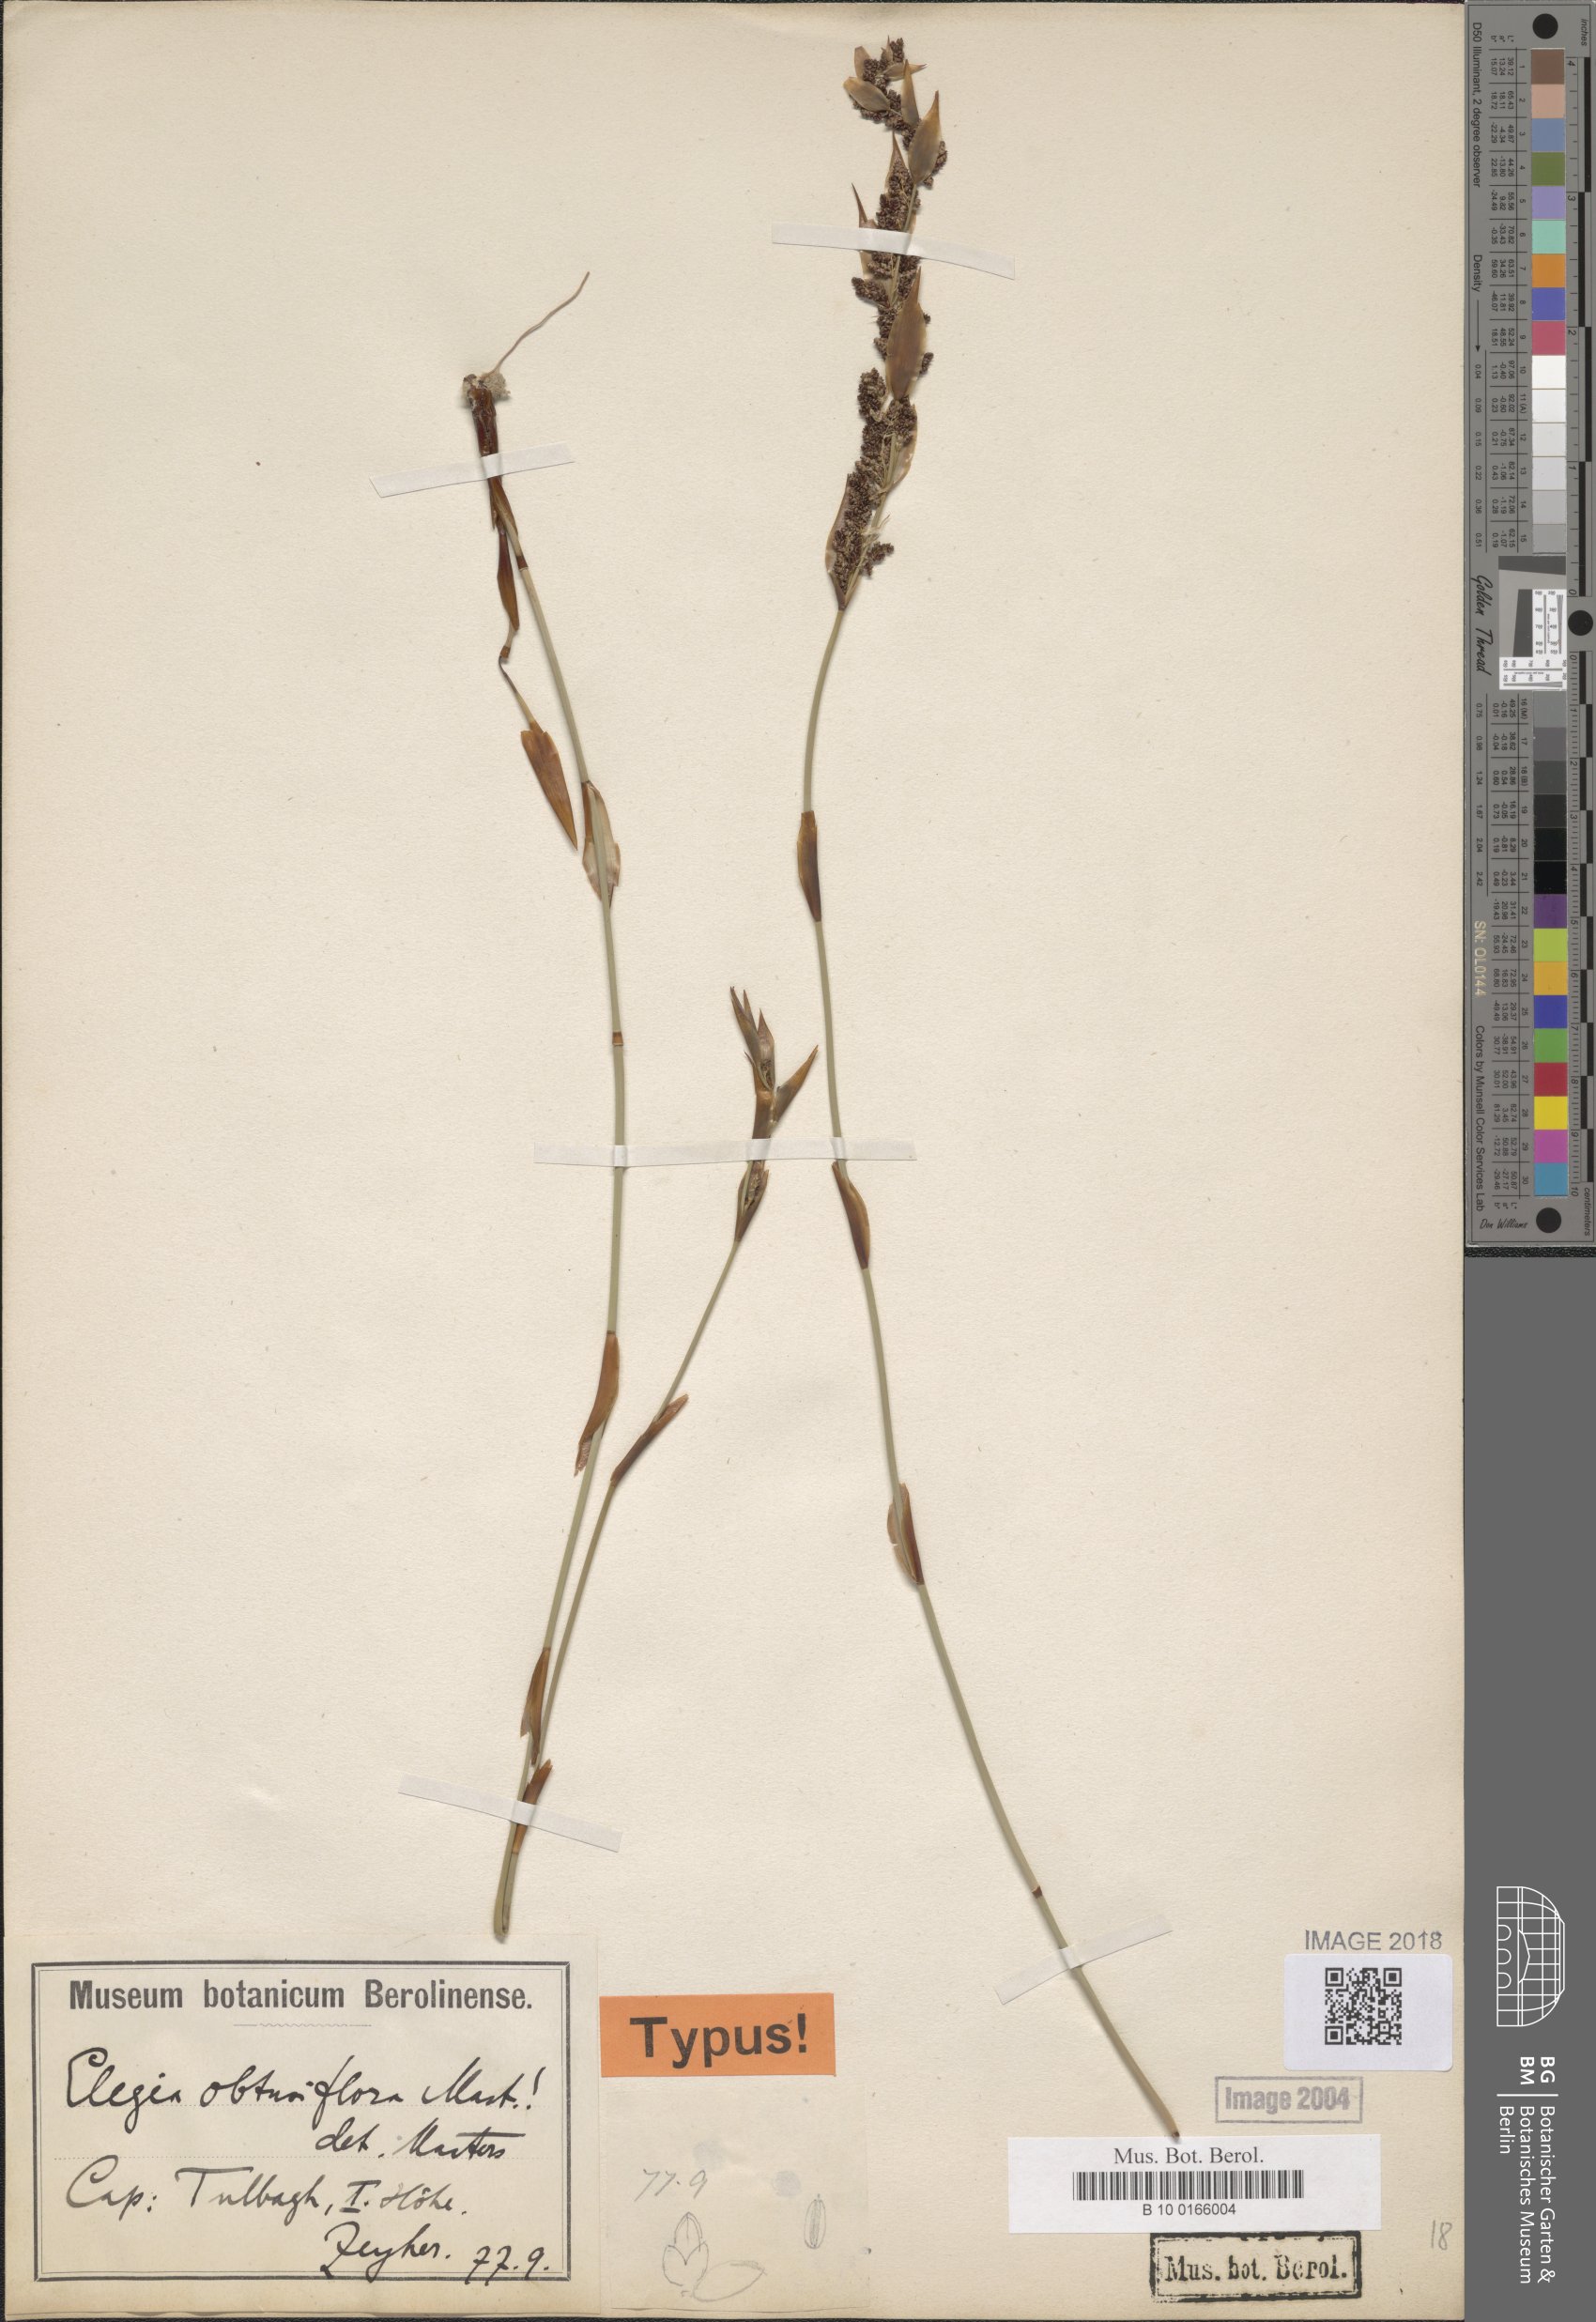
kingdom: Plantae
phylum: Tracheophyta
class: Liliopsida
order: Poales
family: Restionaceae
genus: Cannomois
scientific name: Cannomois parviflora
